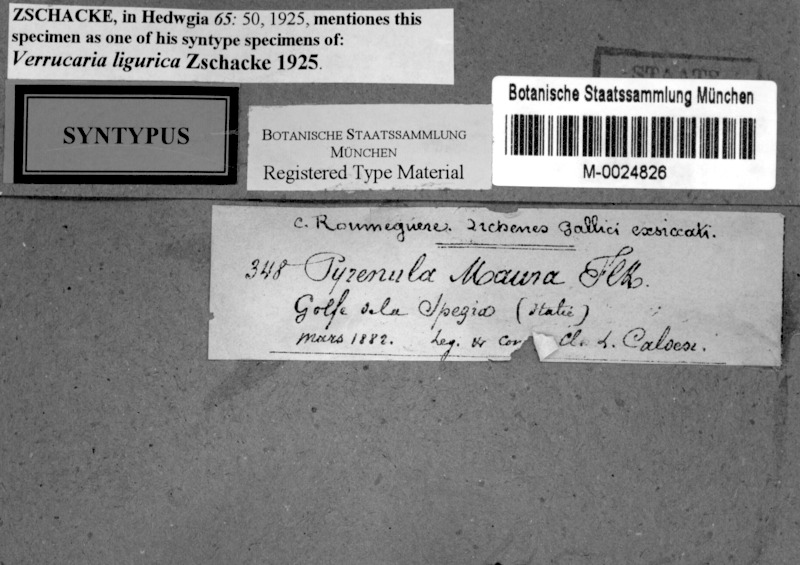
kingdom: Fungi
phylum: Ascomycota
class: Eurotiomycetes
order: Verrucariales
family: Verrucariaceae
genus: Verrucaria
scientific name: Verrucaria ligurica
